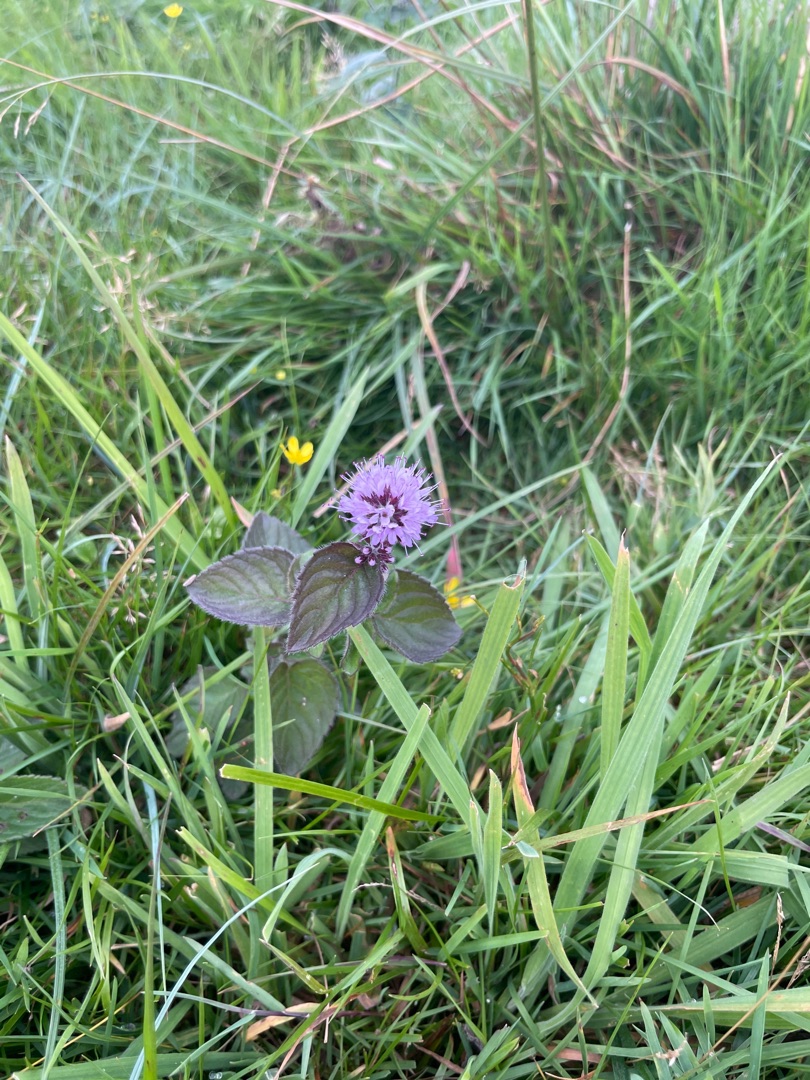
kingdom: Plantae
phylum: Tracheophyta
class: Magnoliopsida
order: Lamiales
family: Lamiaceae
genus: Mentha
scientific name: Mentha aquatica
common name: Vand-mynte
